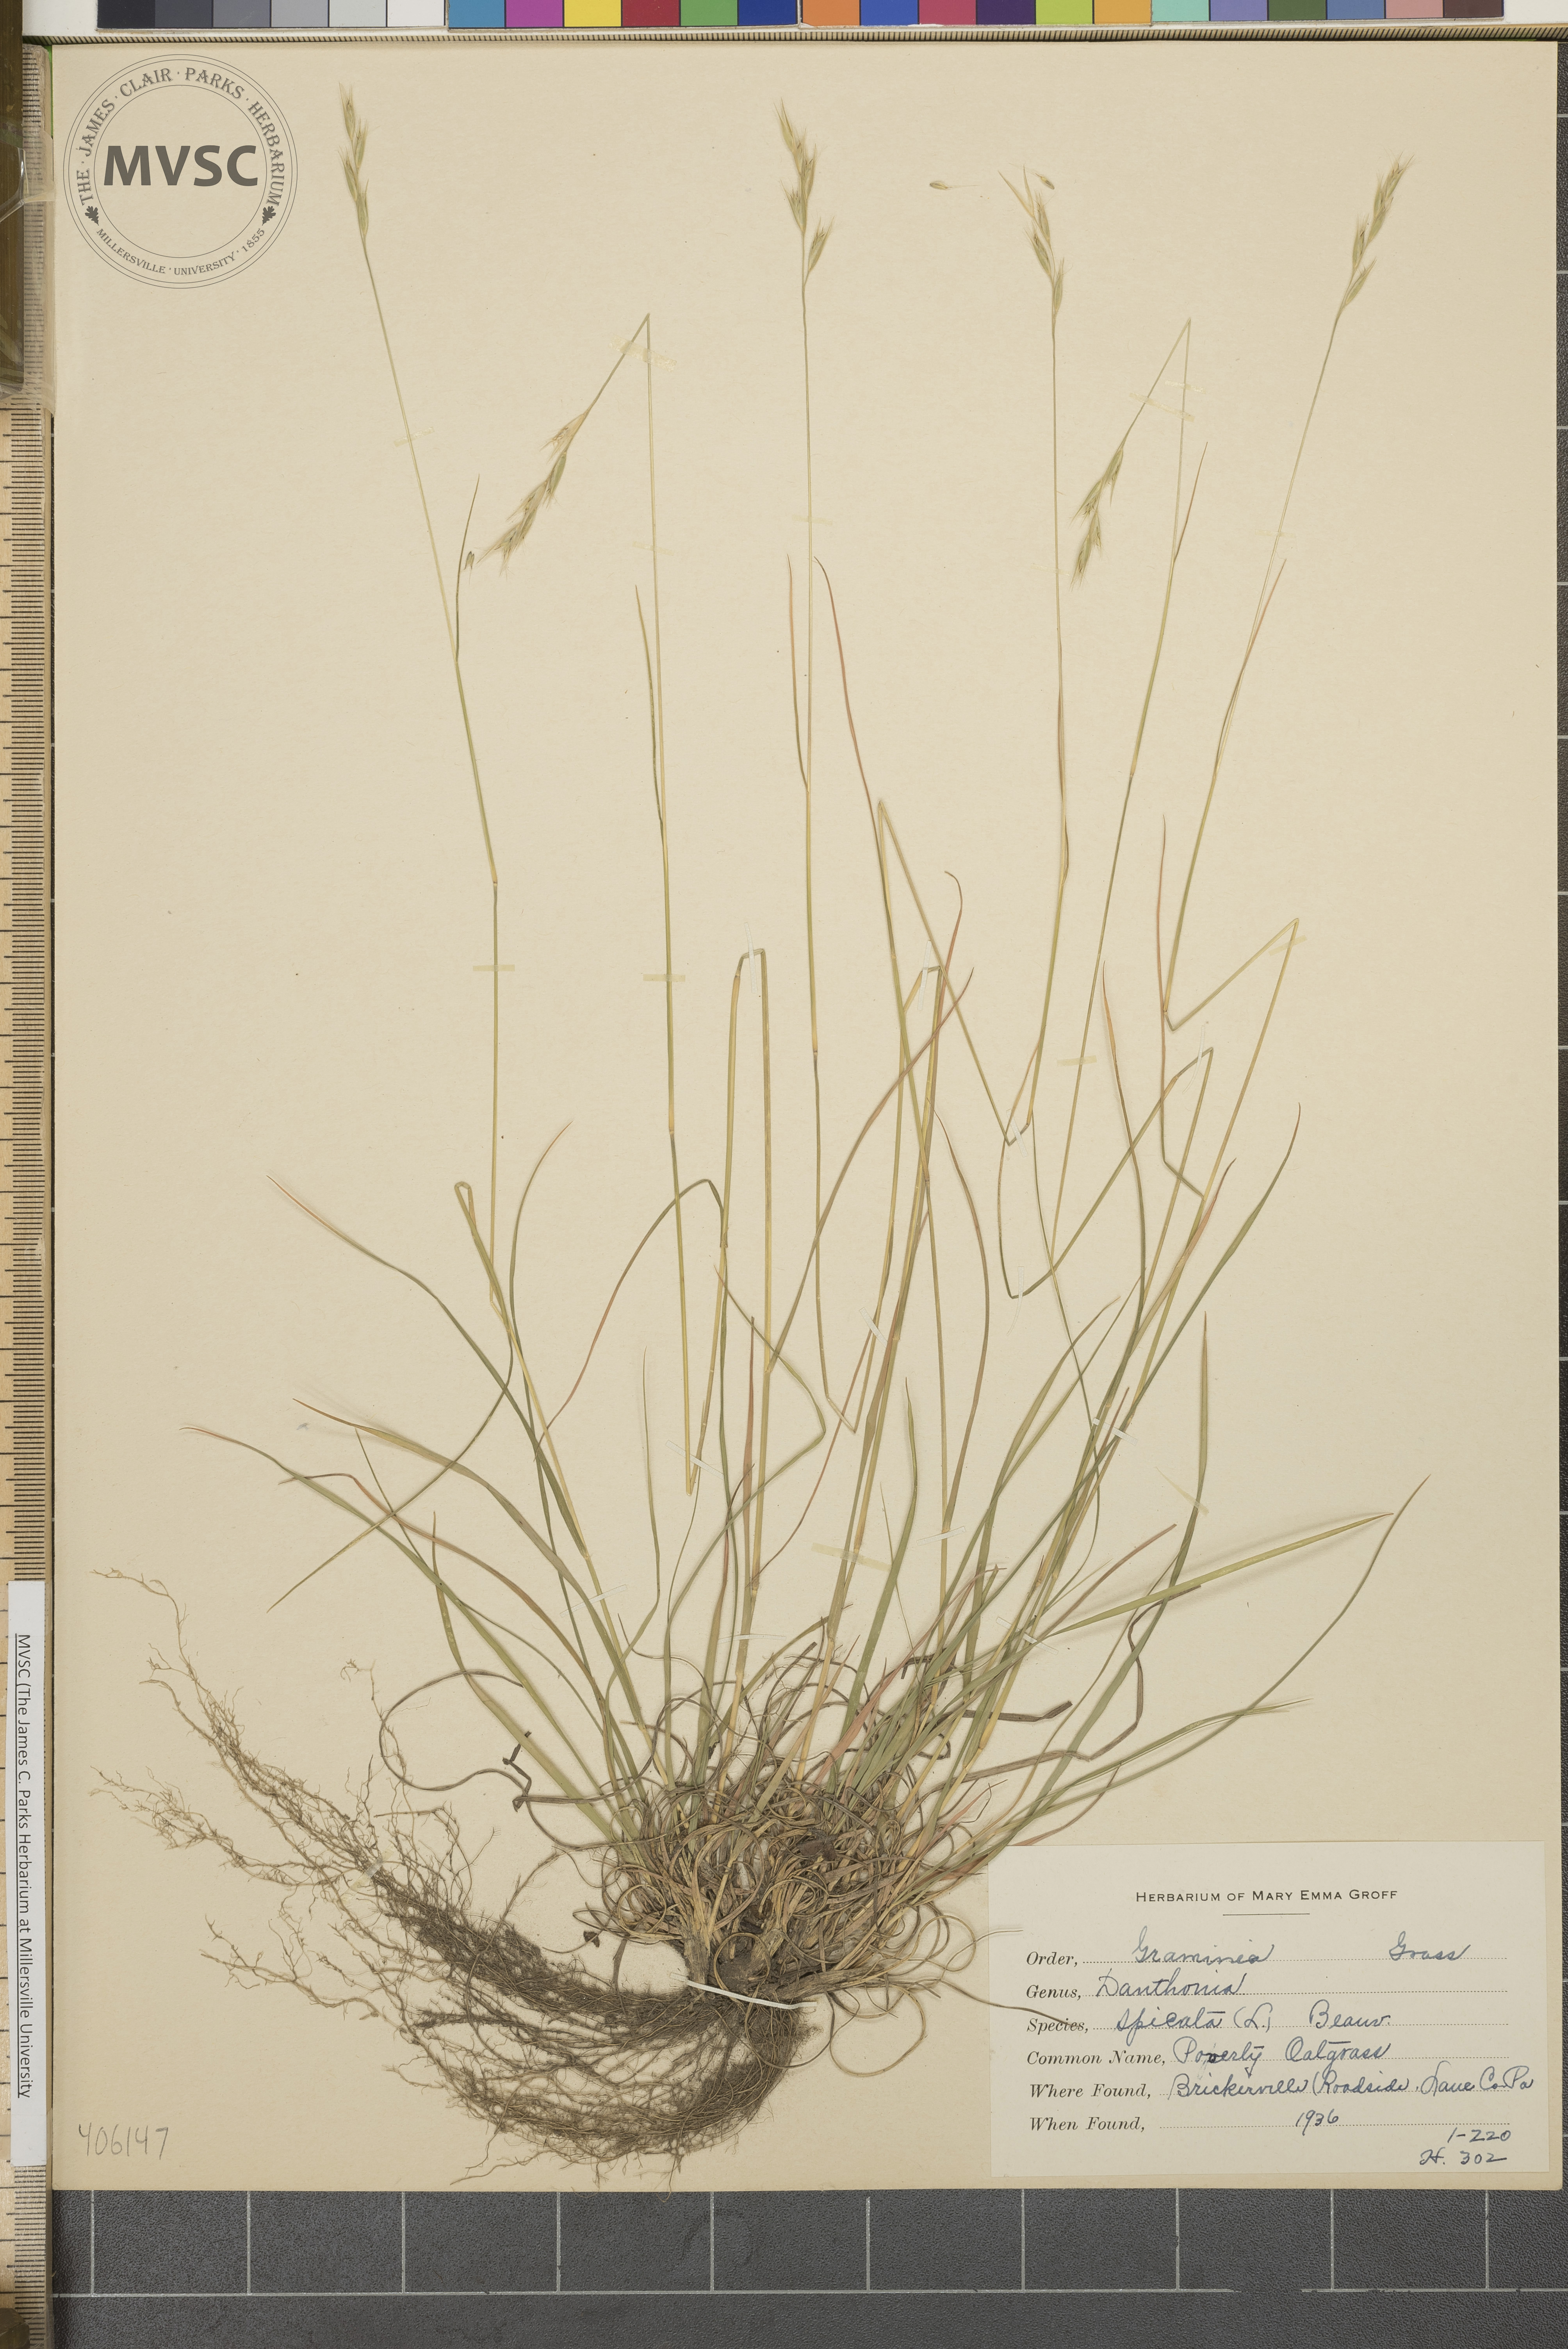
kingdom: Plantae
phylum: Tracheophyta
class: Liliopsida
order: Poales
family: Poaceae
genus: Danthonia
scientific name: Danthonia spicata
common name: Common wild oatgrass
